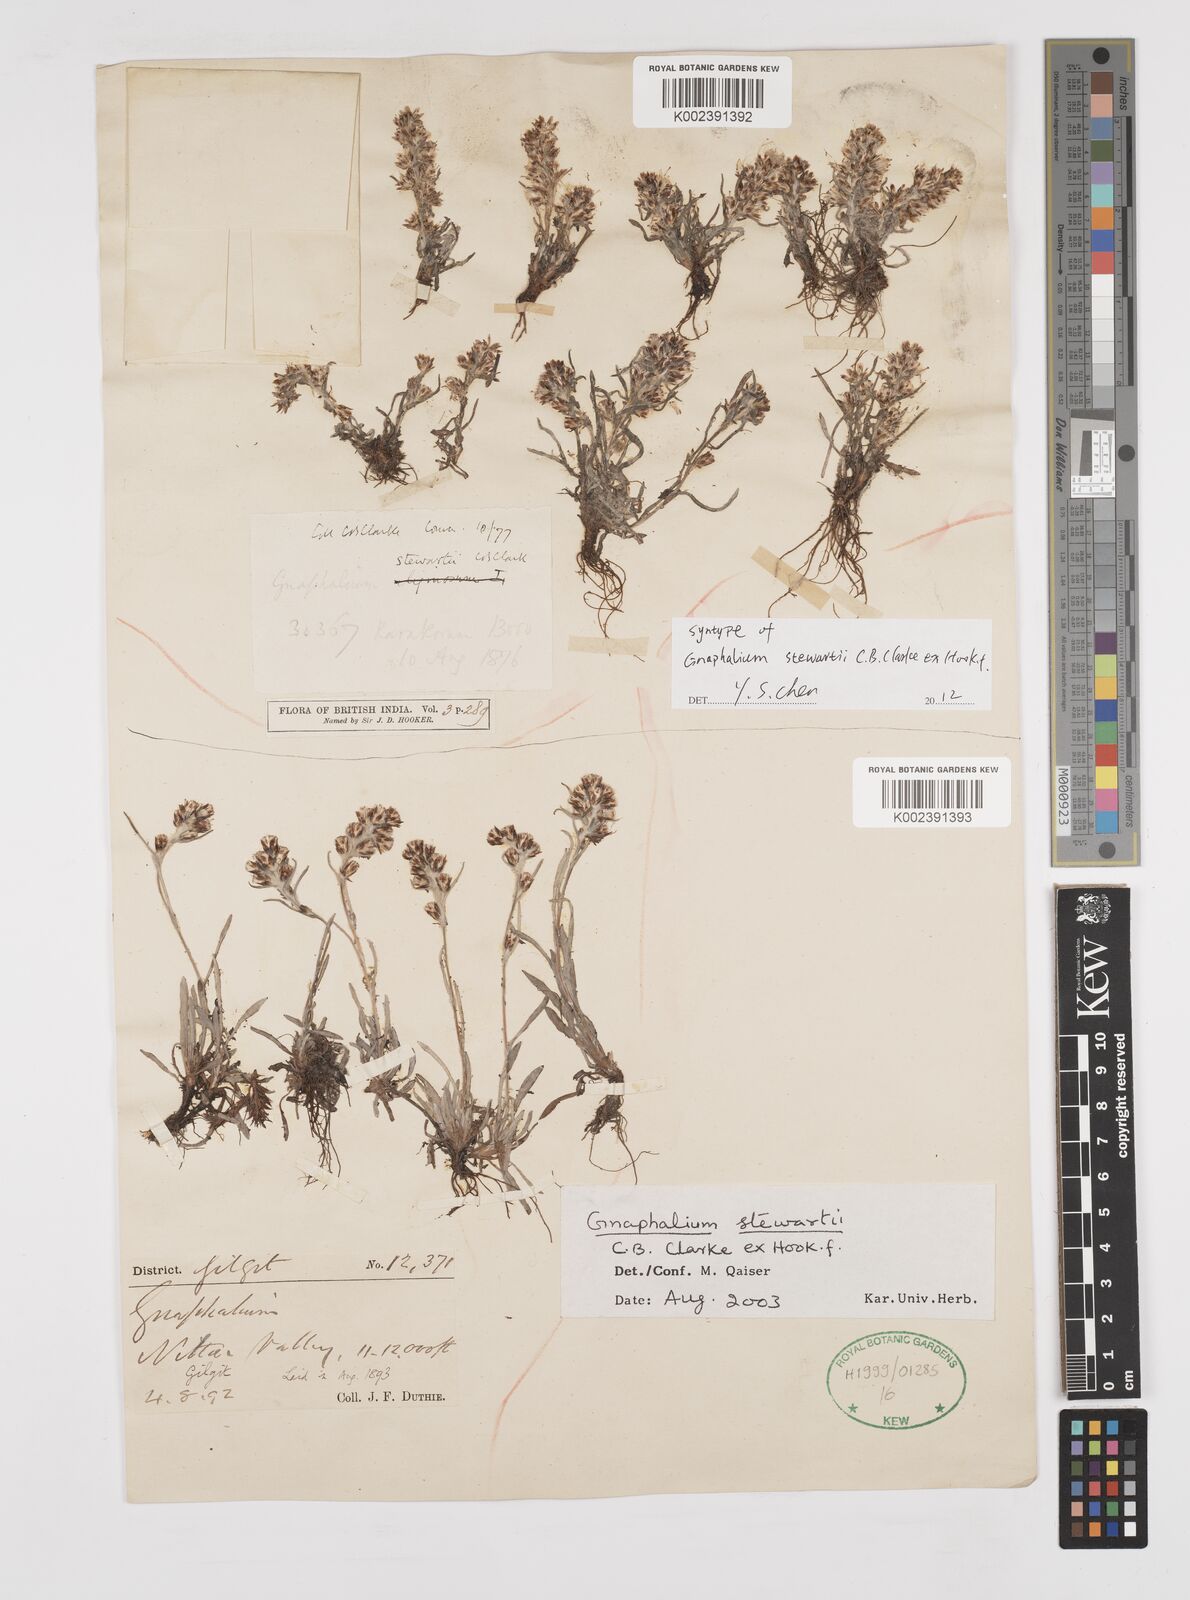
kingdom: Plantae
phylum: Tracheophyta
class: Magnoliopsida
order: Asterales
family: Asteraceae
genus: Gnaphalium
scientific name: Gnaphalium stewartii
